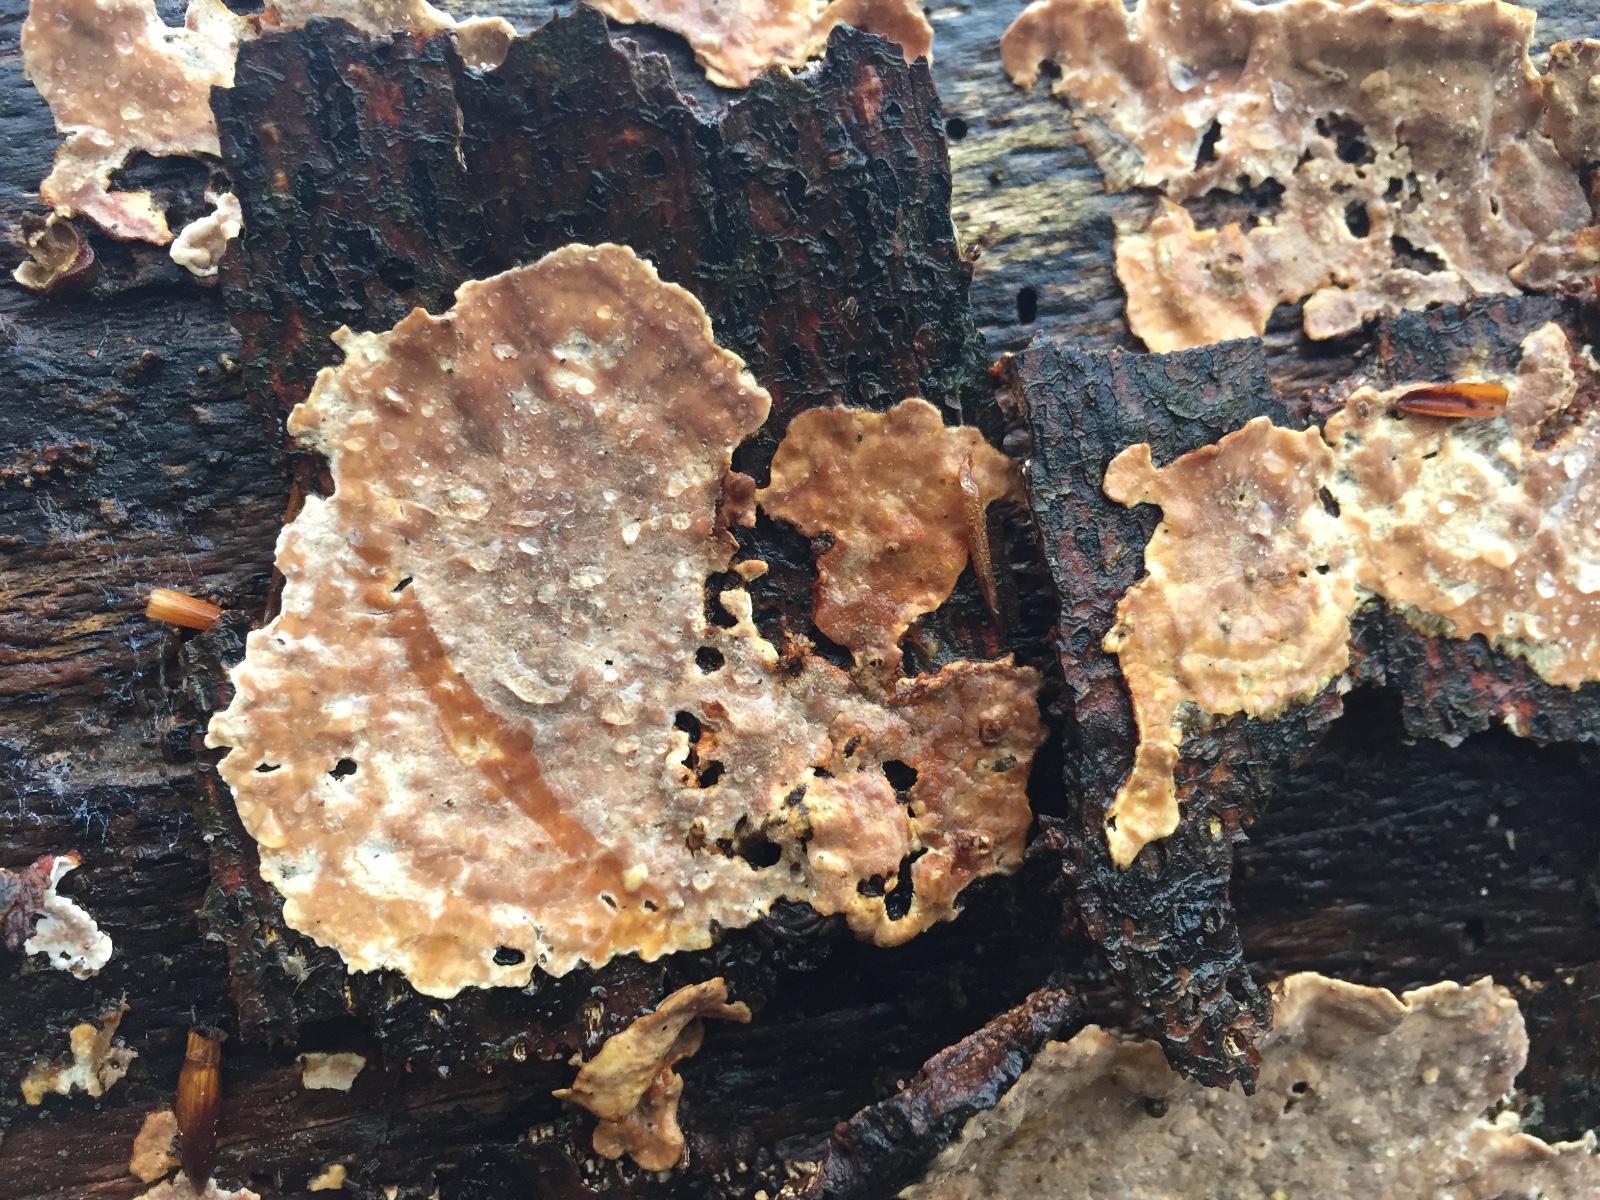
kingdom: Fungi
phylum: Basidiomycota
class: Agaricomycetes
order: Russulales
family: Stereaceae
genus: Stereum
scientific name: Stereum rugosum
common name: rynket lædersvamp
